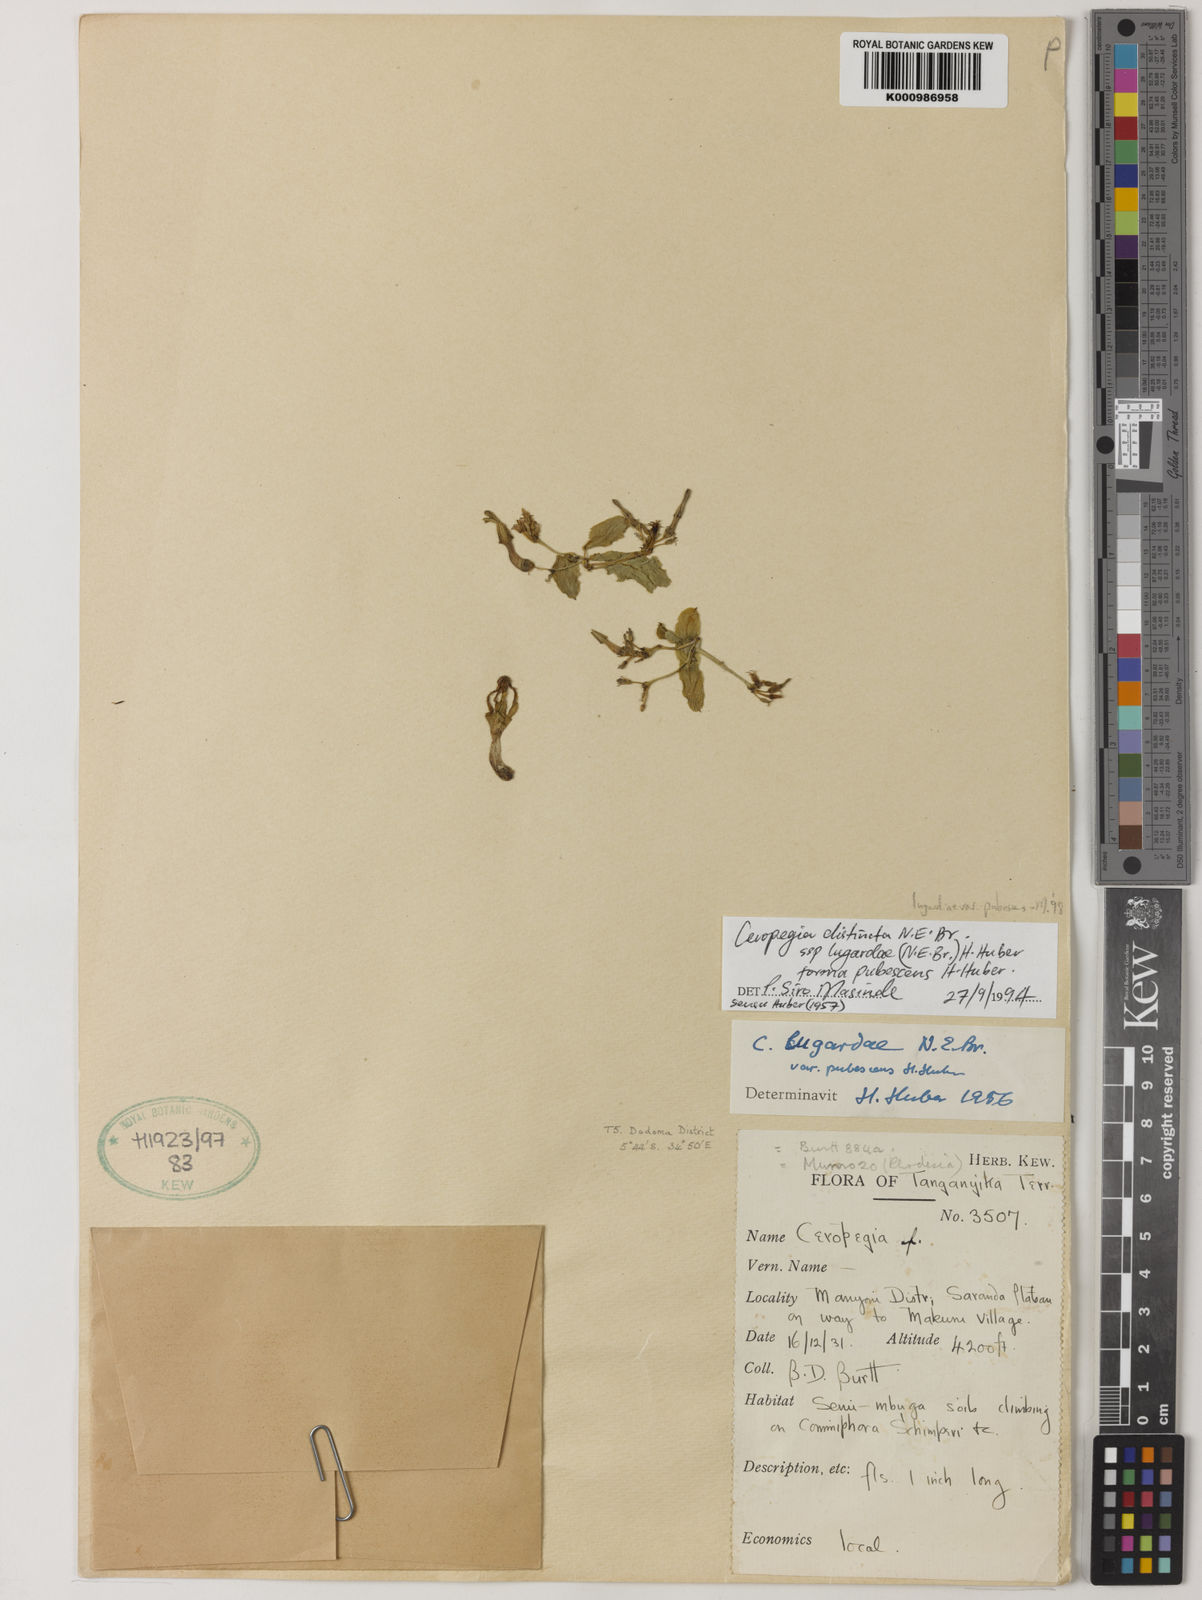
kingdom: Plantae
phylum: Tracheophyta
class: Magnoliopsida
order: Gentianales
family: Apocynaceae
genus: Ceropegia
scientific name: Ceropegia lugardiae
